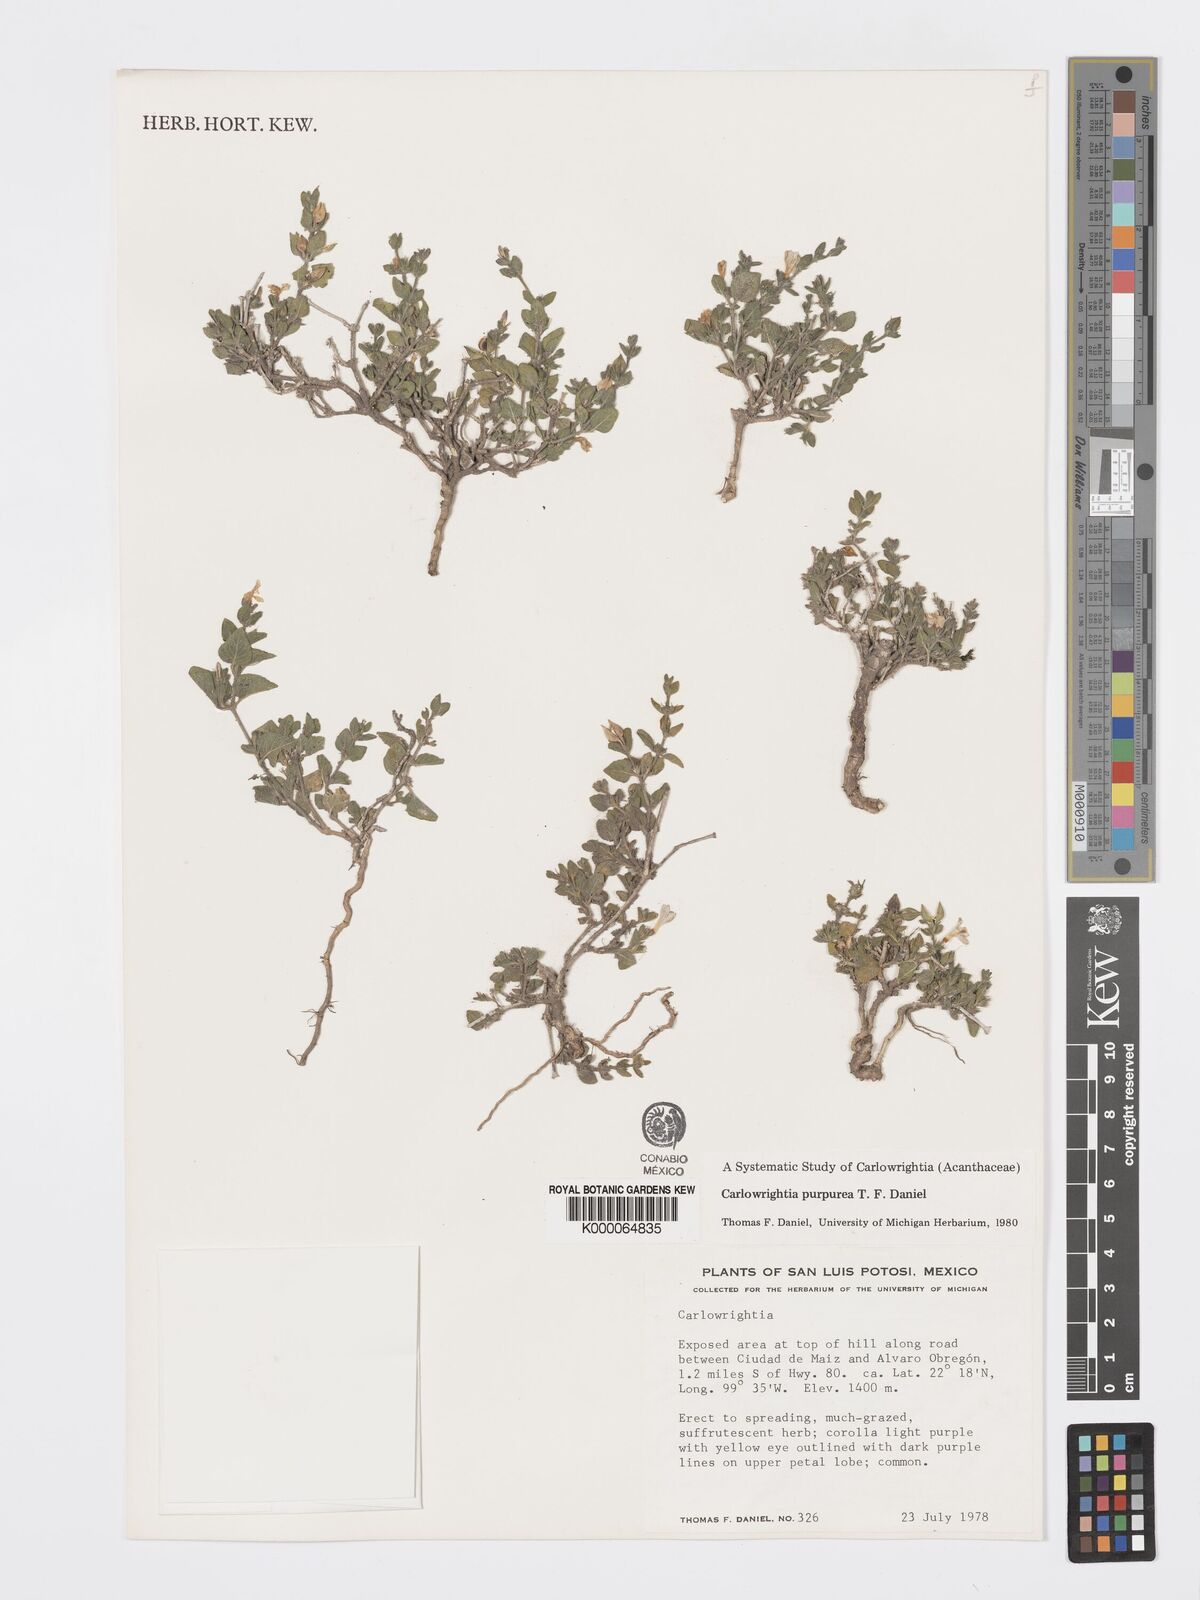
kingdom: Plantae
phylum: Tracheophyta
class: Magnoliopsida
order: Lamiales
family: Acanthaceae
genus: Carlowrightia
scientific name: Carlowrightia purpurea
